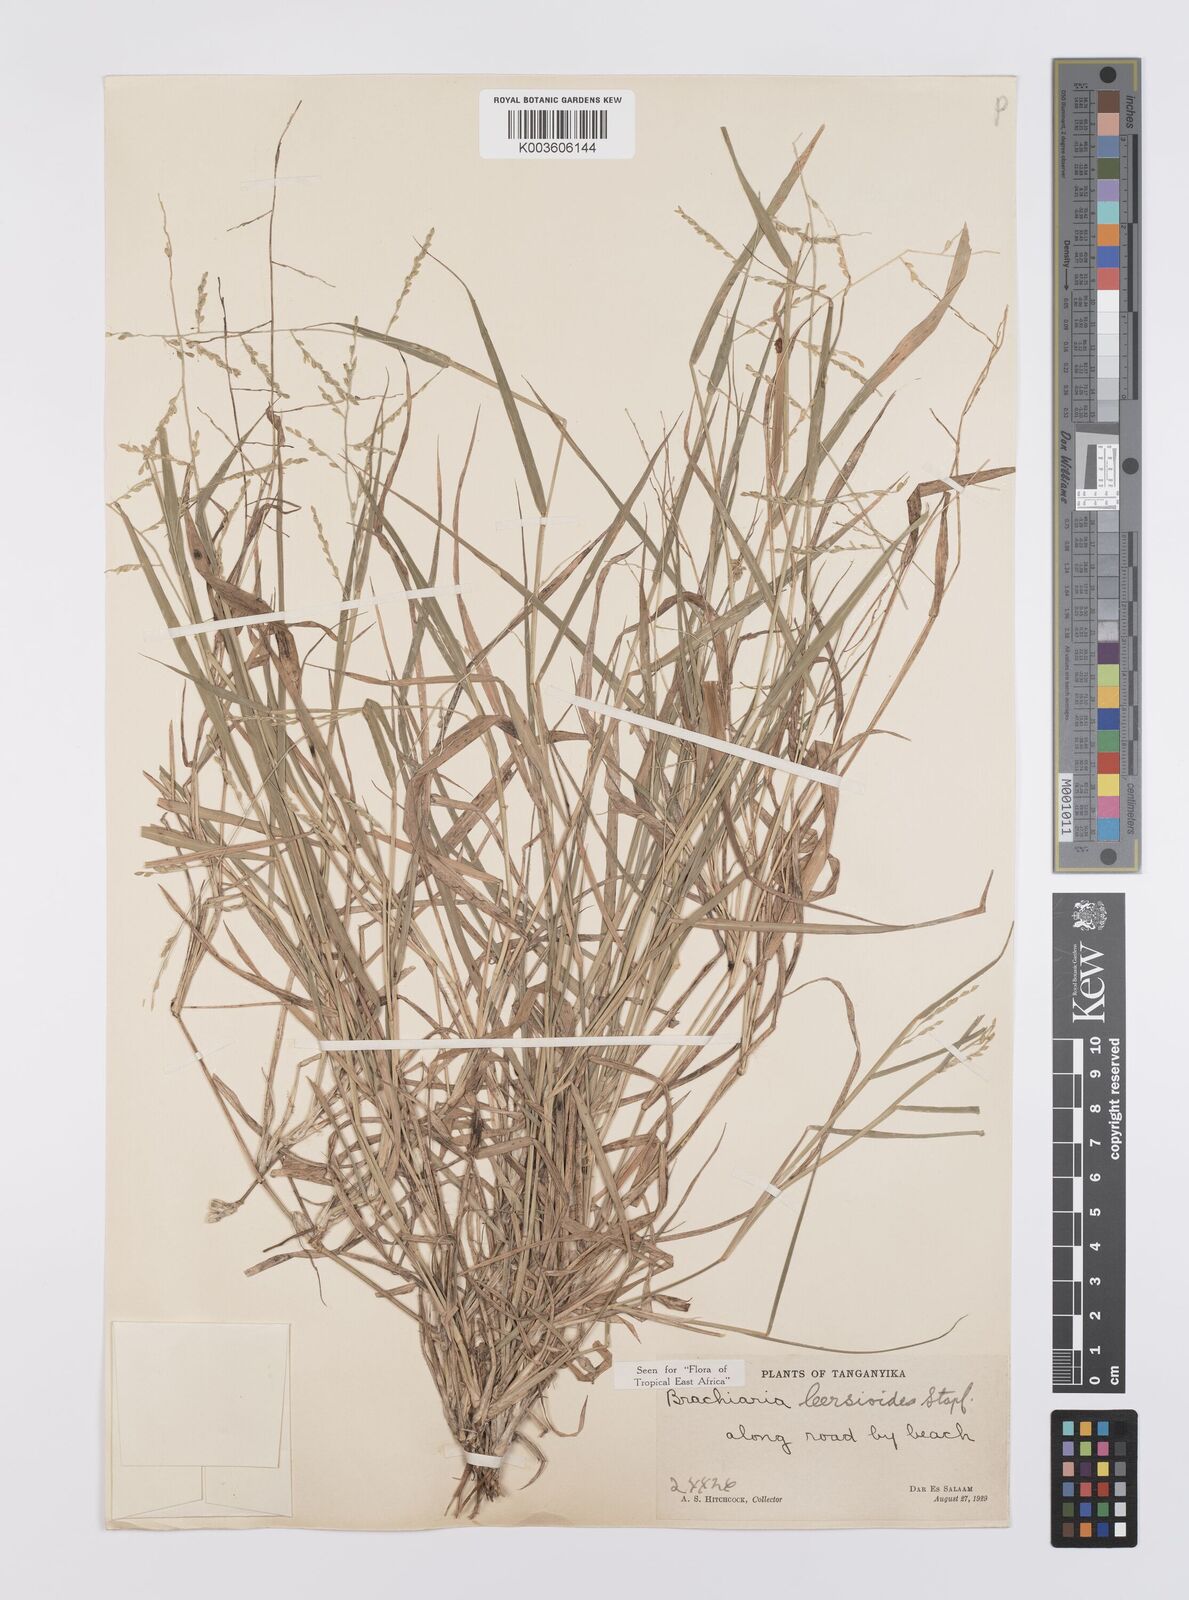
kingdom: Plantae
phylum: Tracheophyta
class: Liliopsida
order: Poales
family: Poaceae
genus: Urochloa
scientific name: Urochloa leersioides
